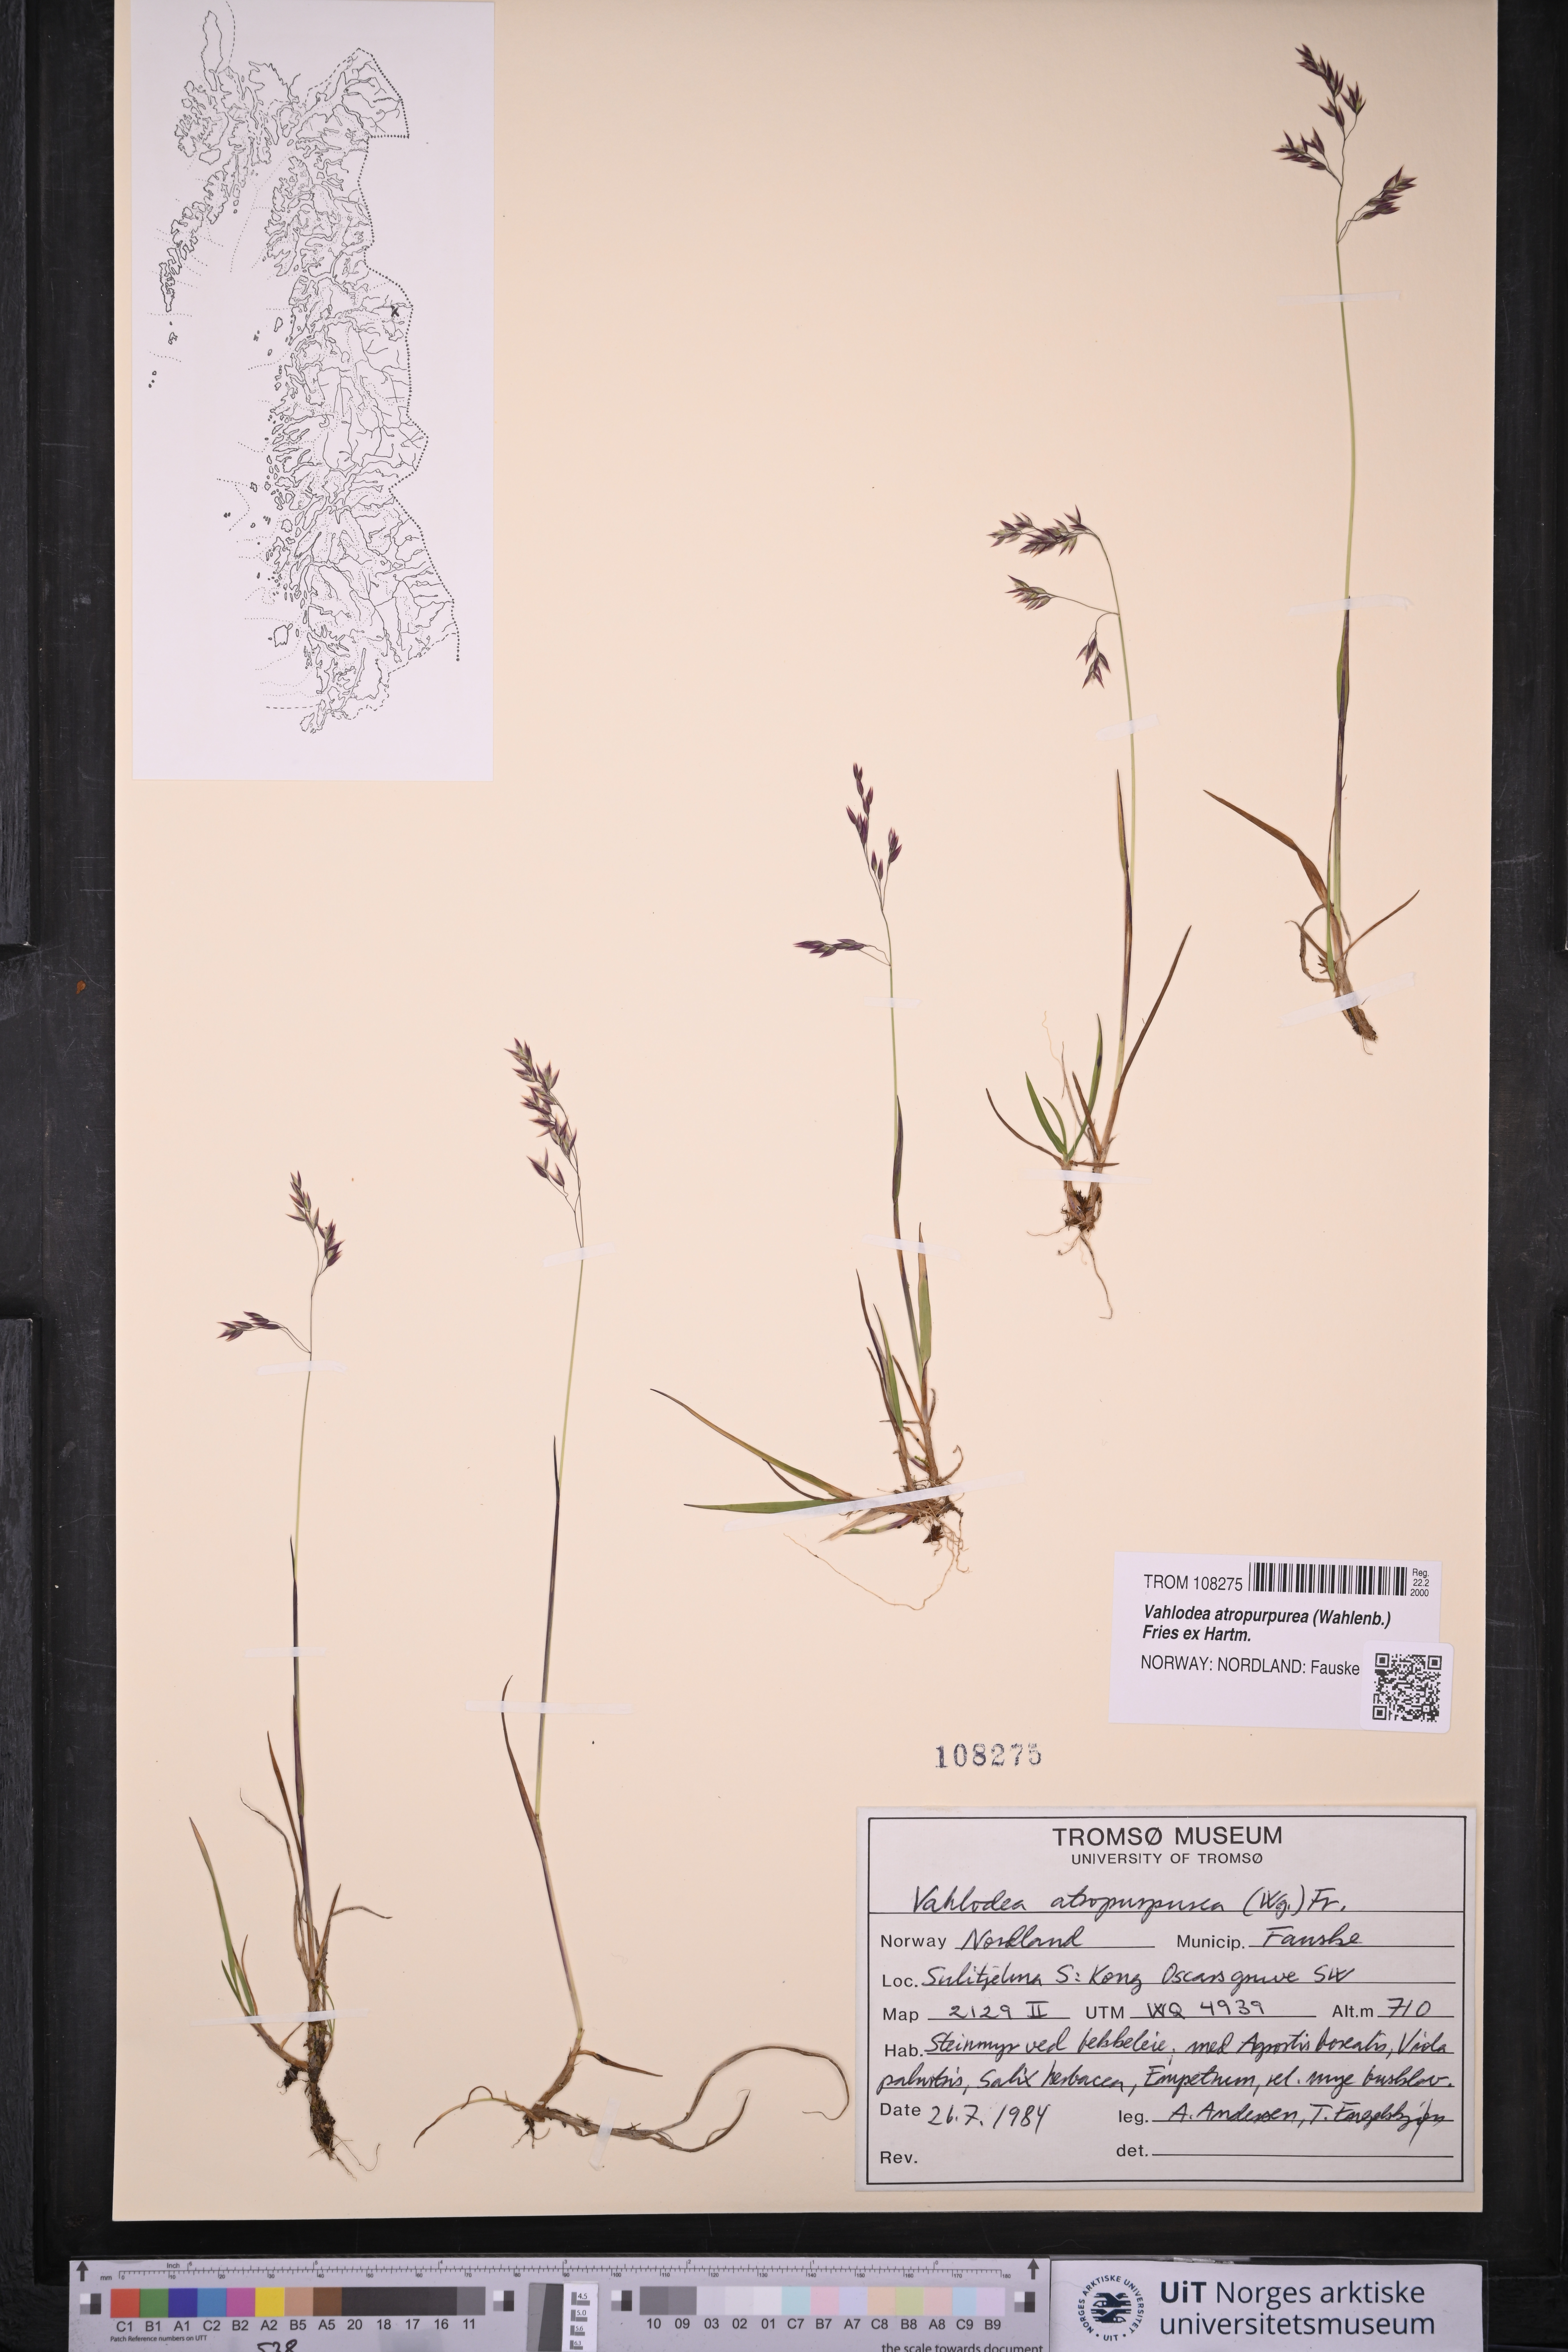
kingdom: Plantae
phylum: Tracheophyta
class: Liliopsida
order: Poales
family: Poaceae
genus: Vahlodea
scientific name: Vahlodea atropurpurea
